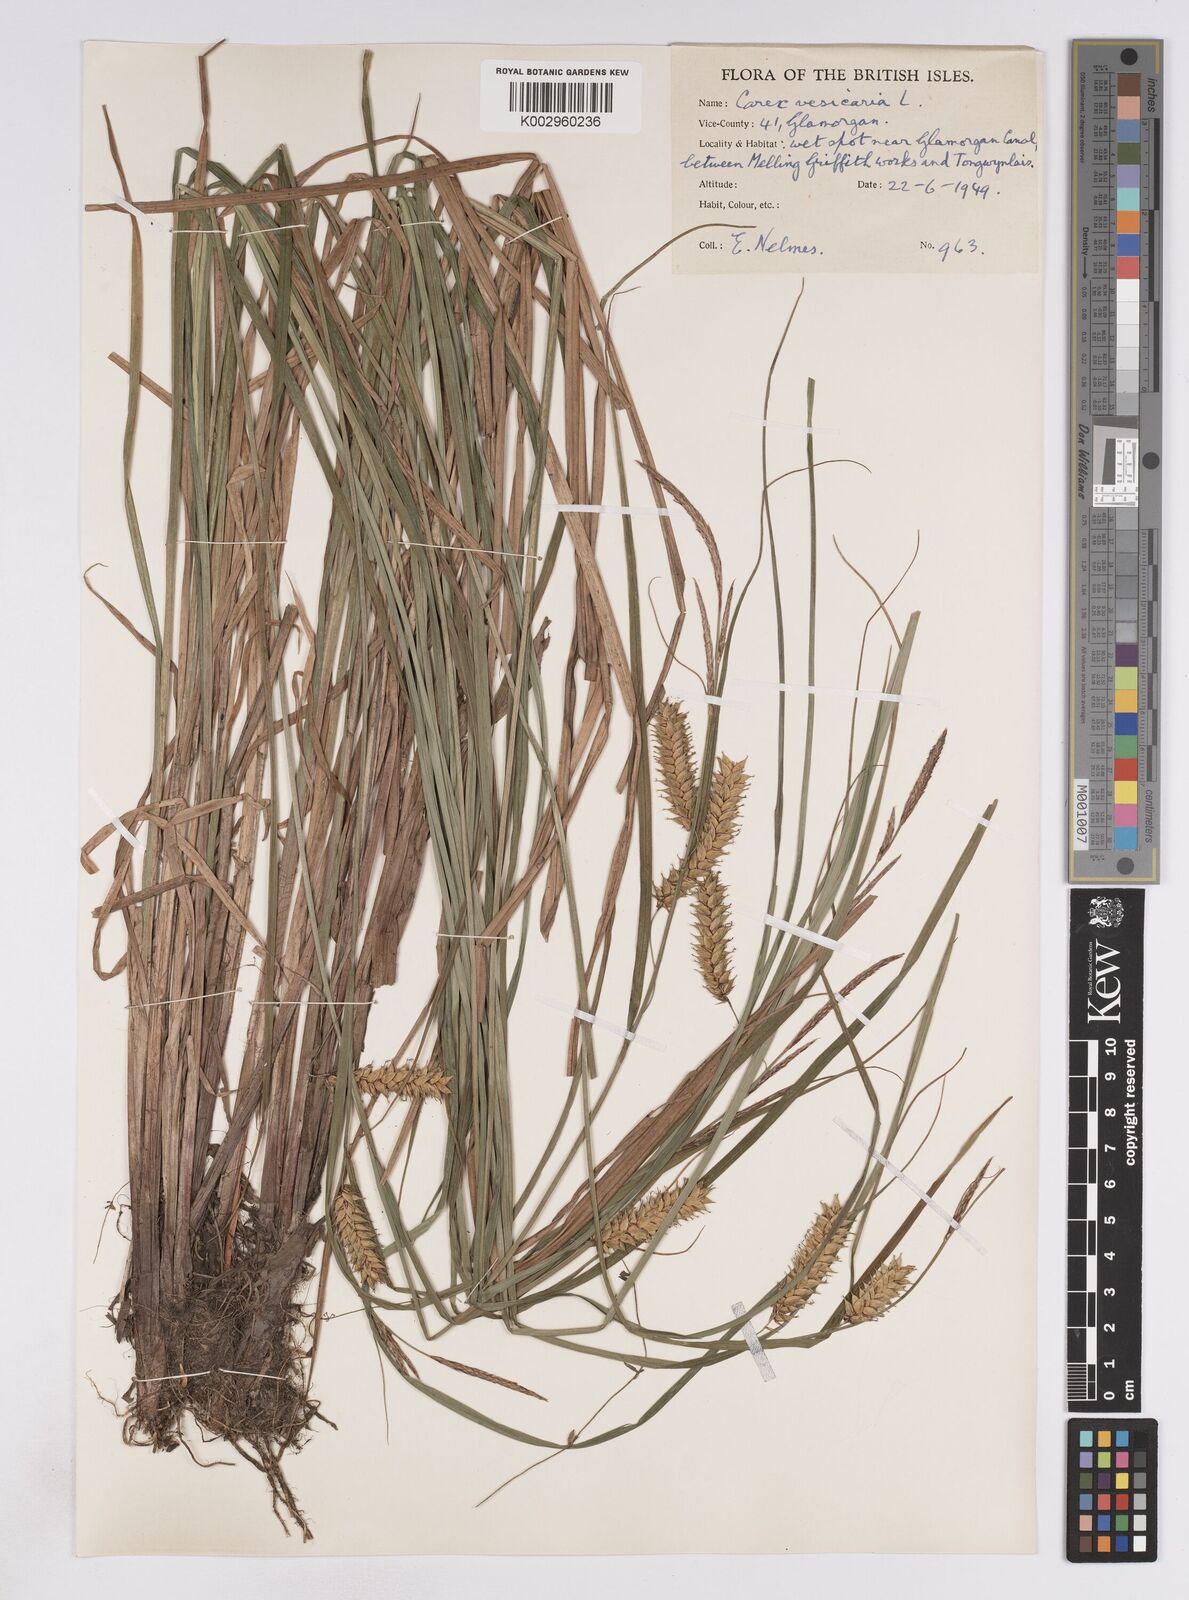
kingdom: Plantae
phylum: Tracheophyta
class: Liliopsida
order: Poales
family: Cyperaceae
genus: Carex
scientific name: Carex vesicaria
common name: Bladder-sedge
